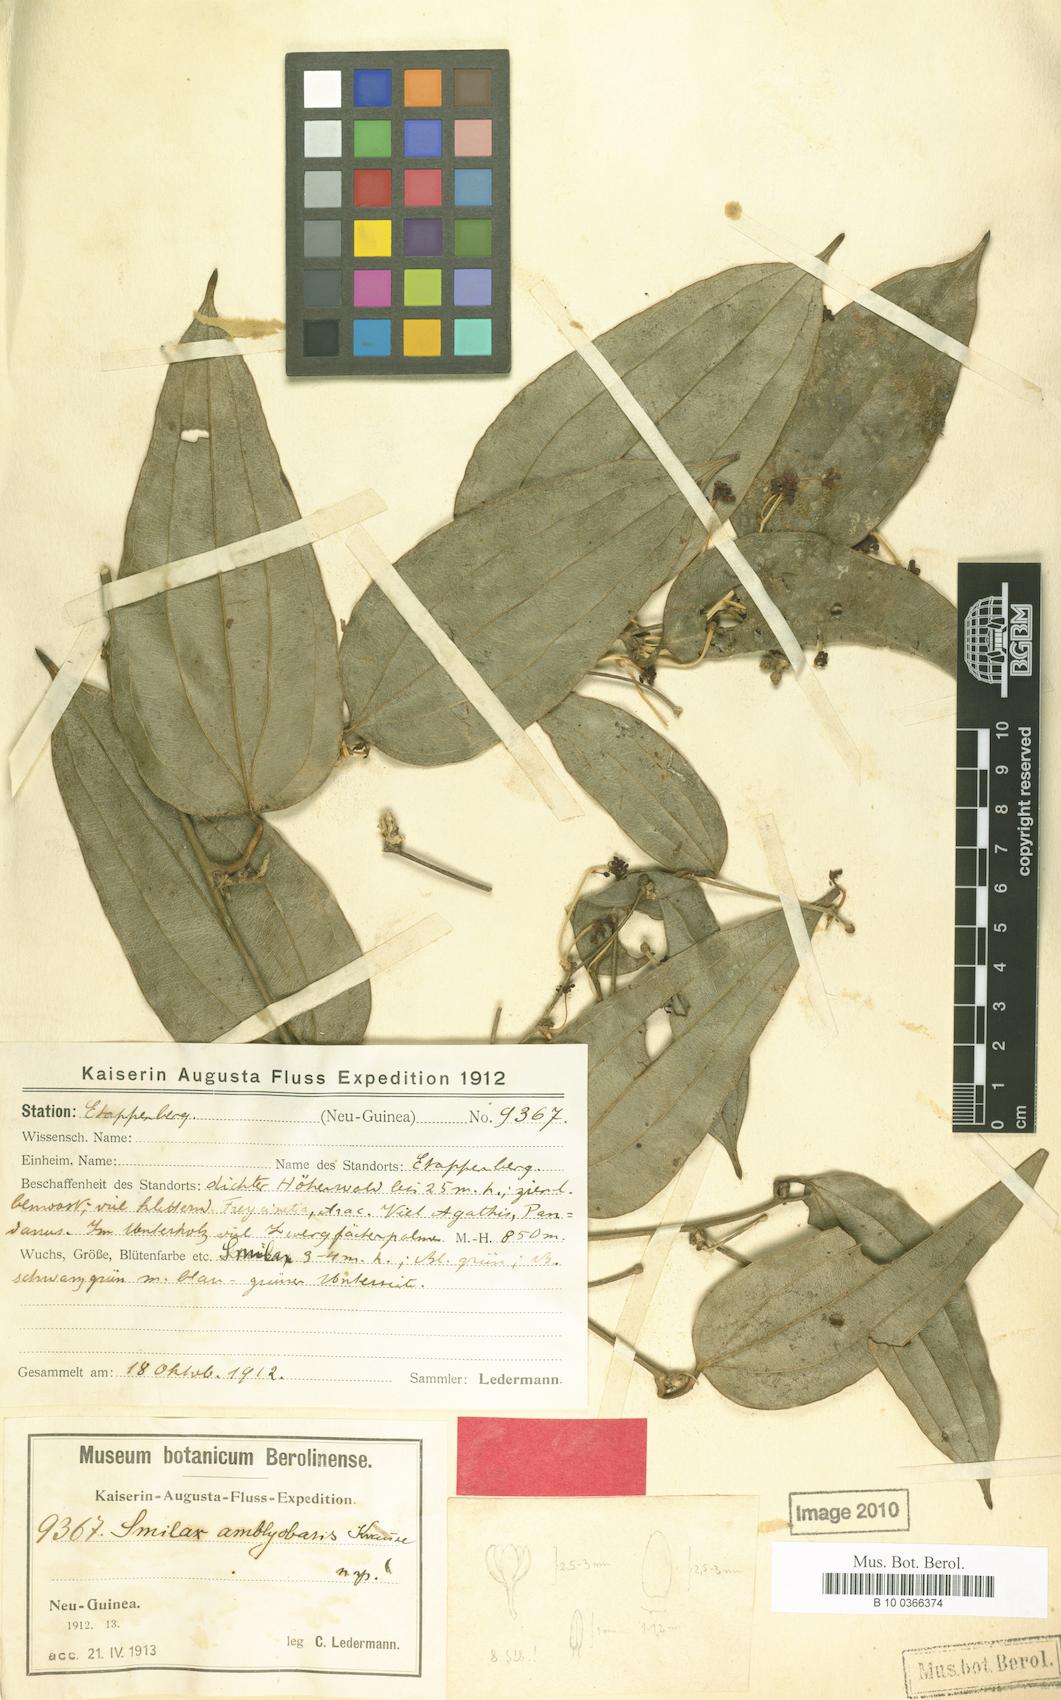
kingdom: Plantae
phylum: Tracheophyta
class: Liliopsida
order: Liliales
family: Smilacaceae
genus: Smilax
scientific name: Smilax amblyobasis
